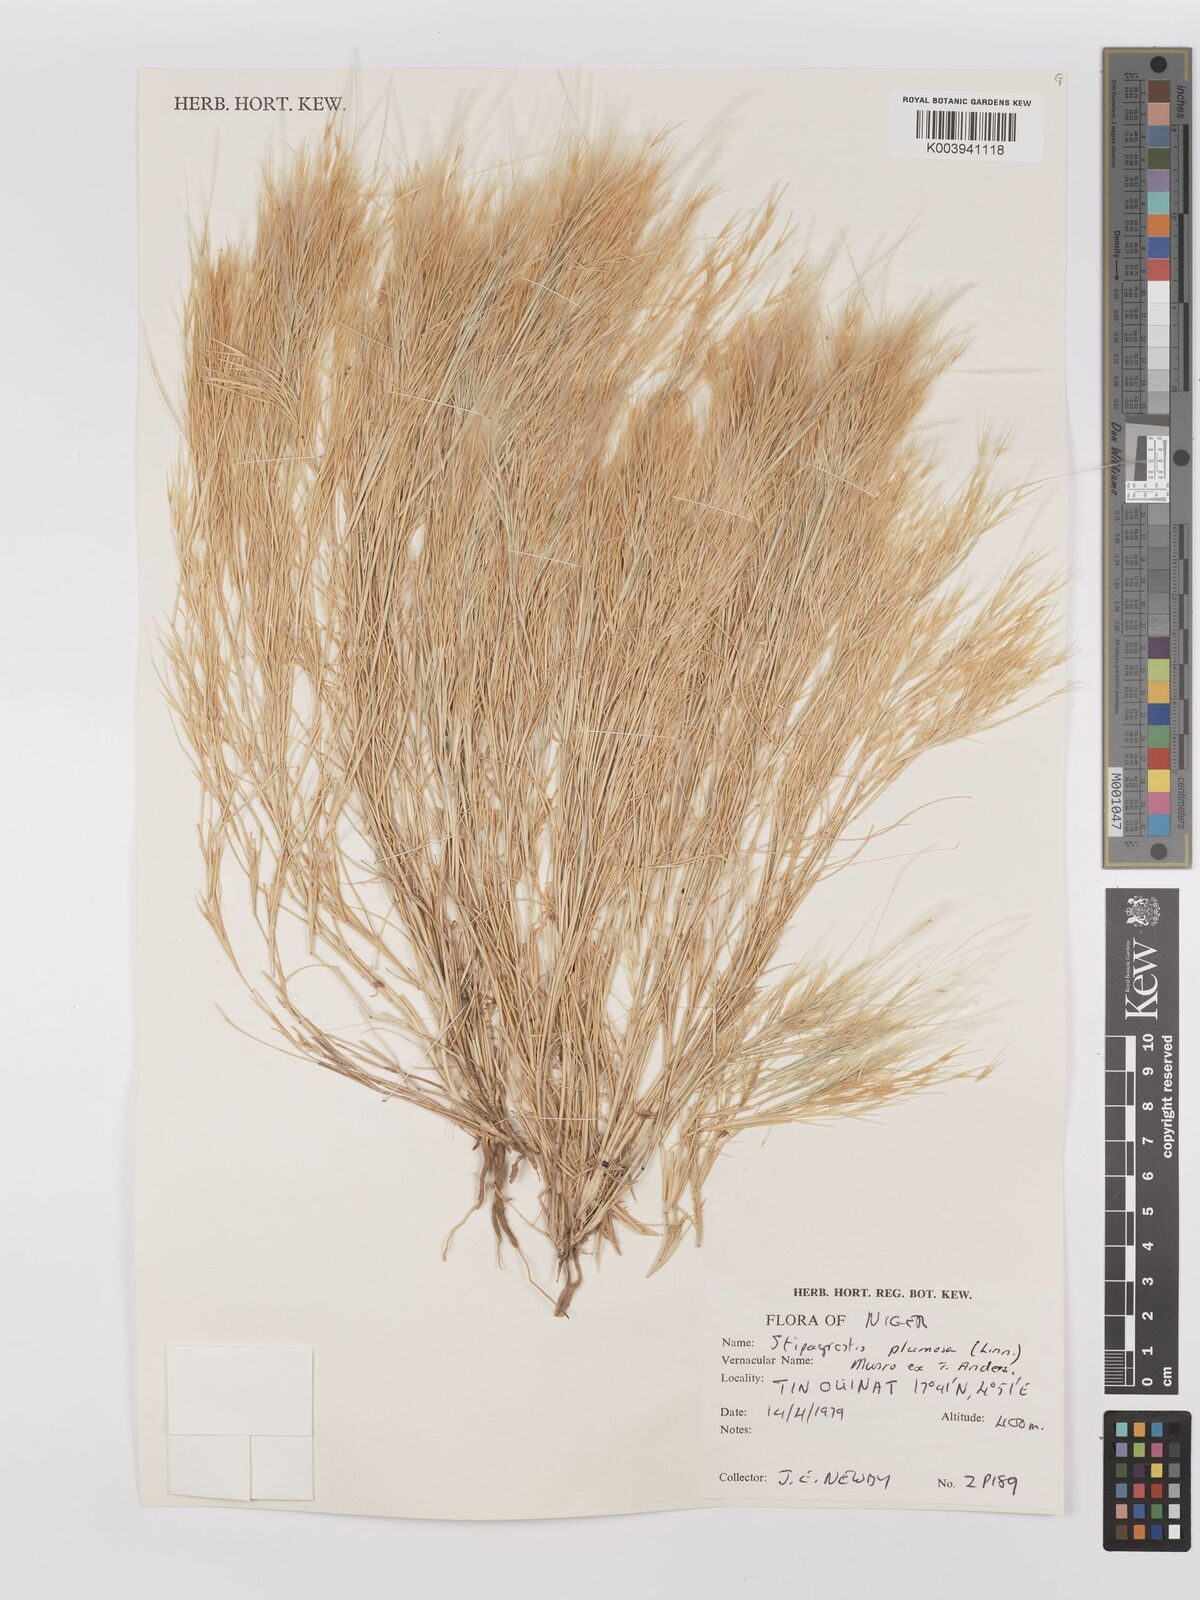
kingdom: Plantae
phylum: Tracheophyta
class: Liliopsida
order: Poales
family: Poaceae
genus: Stipagrostis
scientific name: Stipagrostis plumosa
